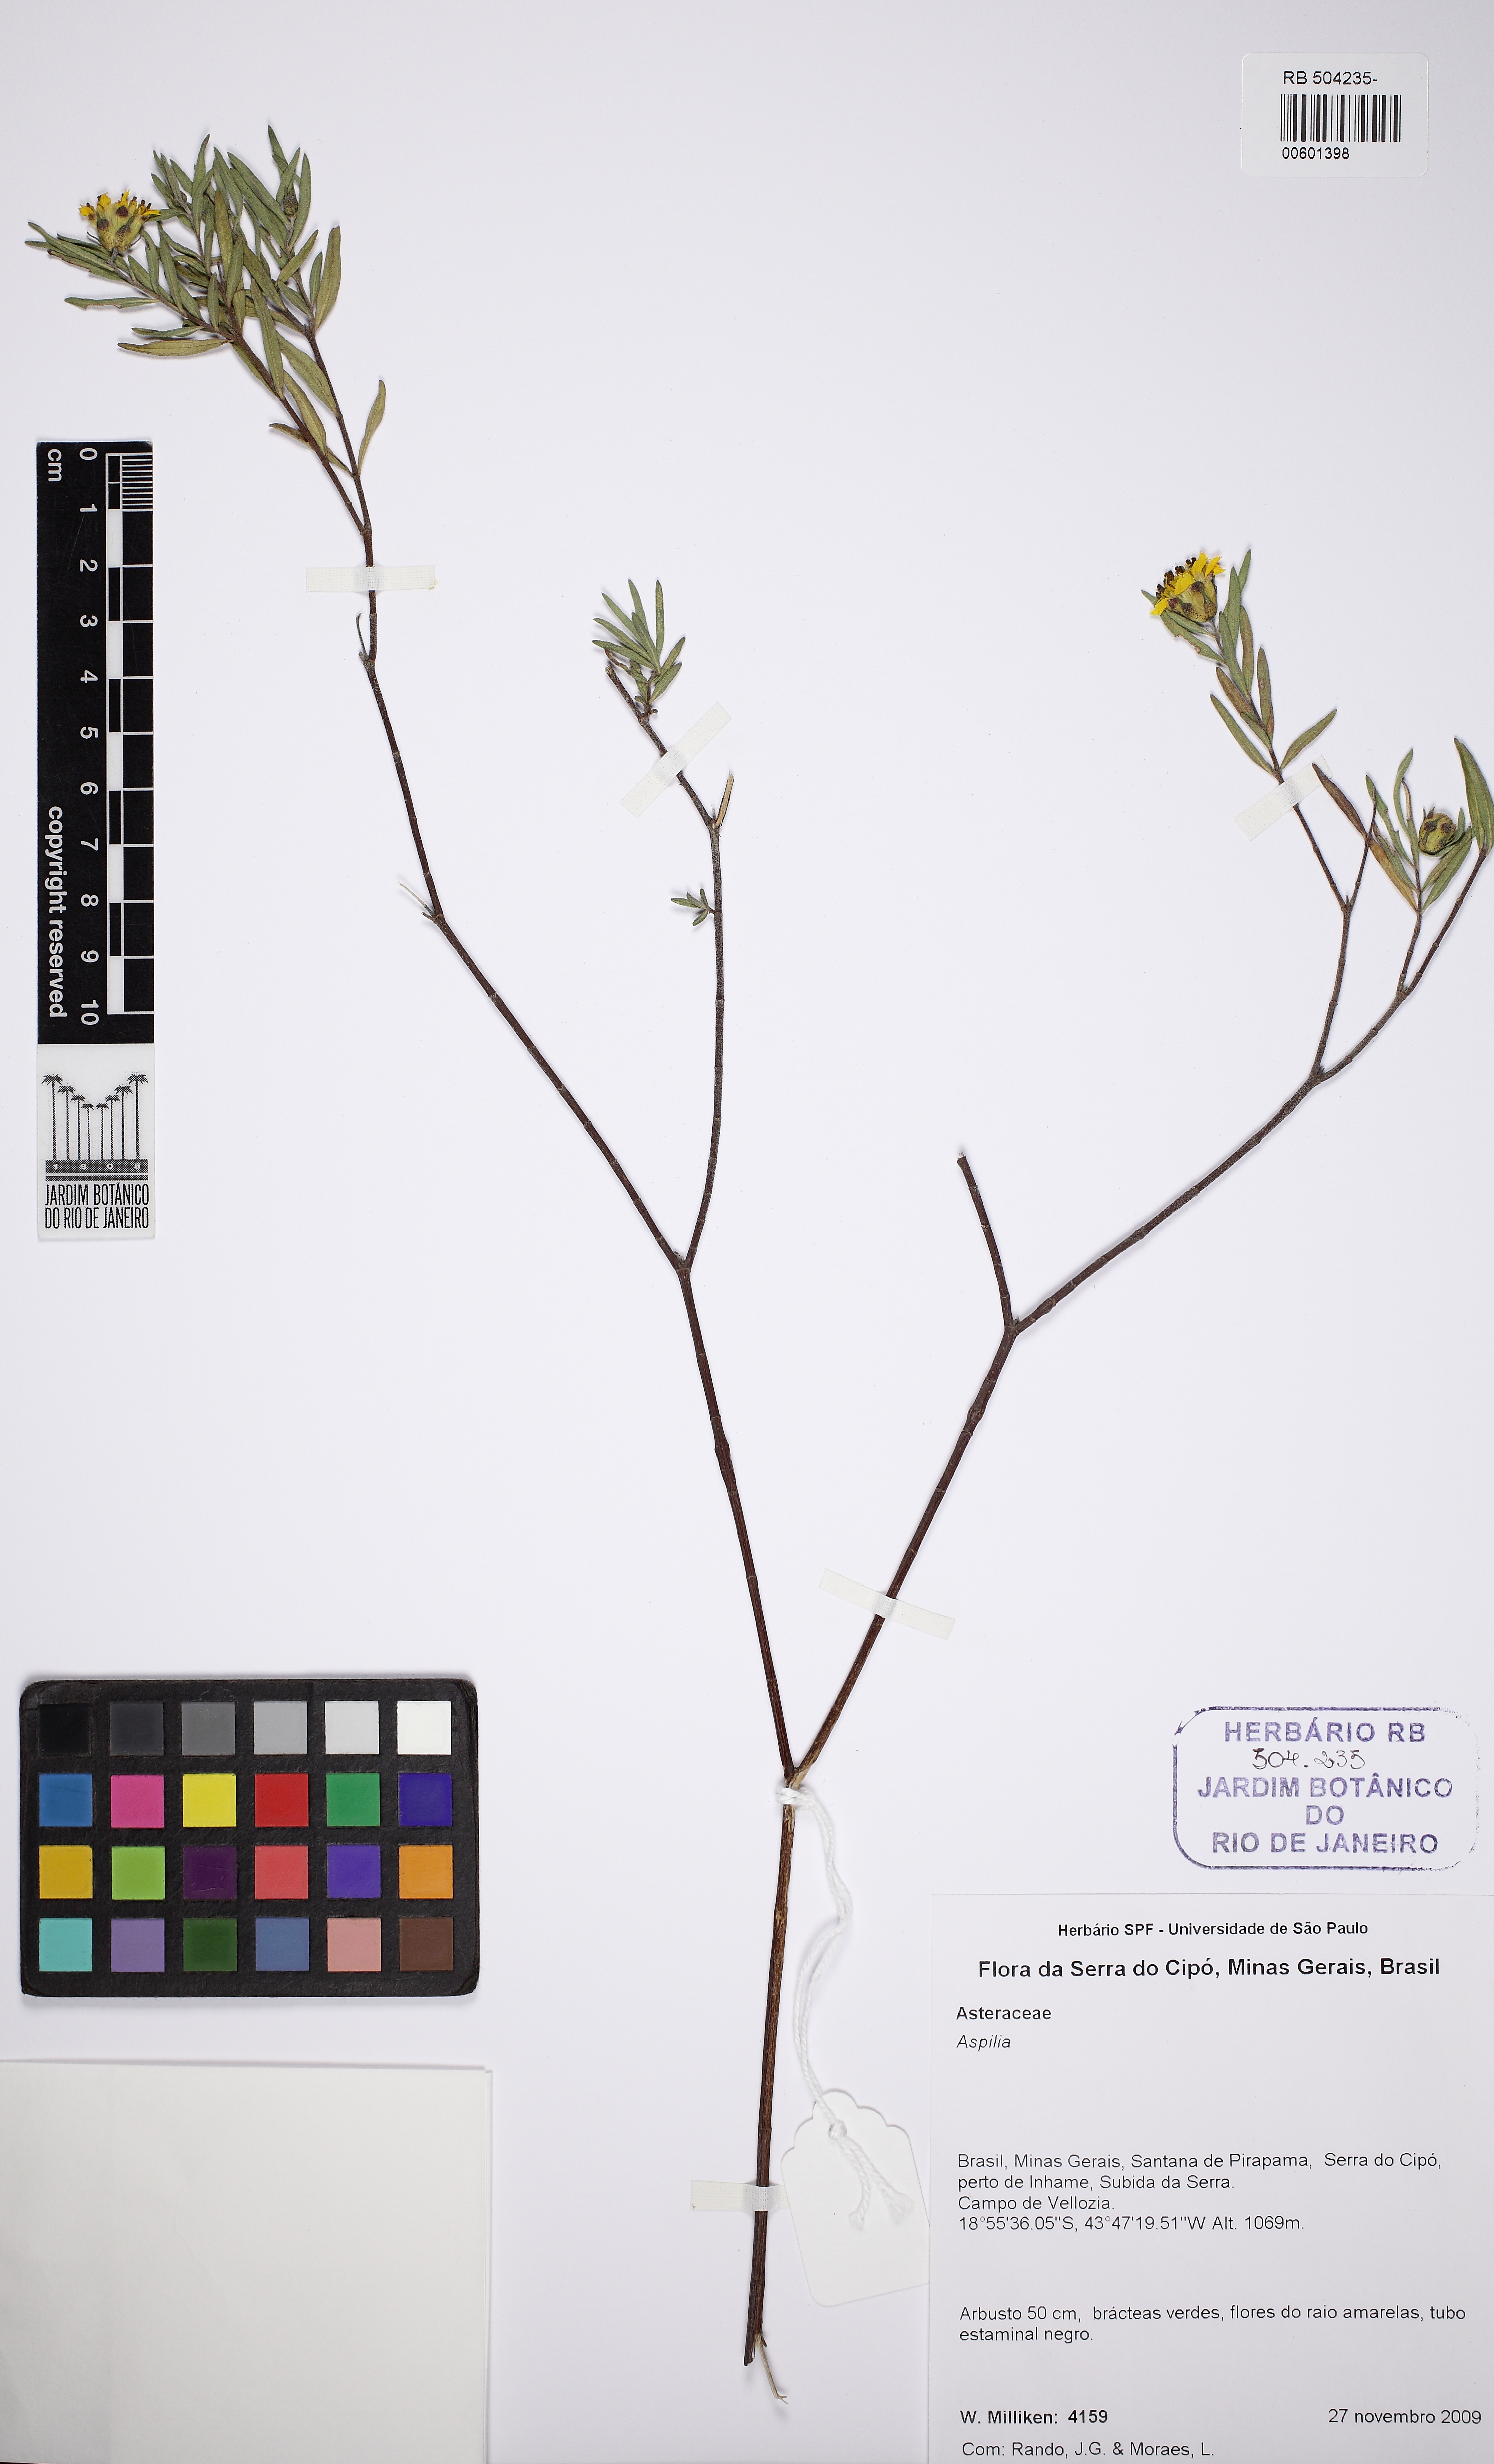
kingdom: Plantae
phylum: Tracheophyta
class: Magnoliopsida
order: Asterales
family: Asteraceae
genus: Aspilia
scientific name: Aspilia
